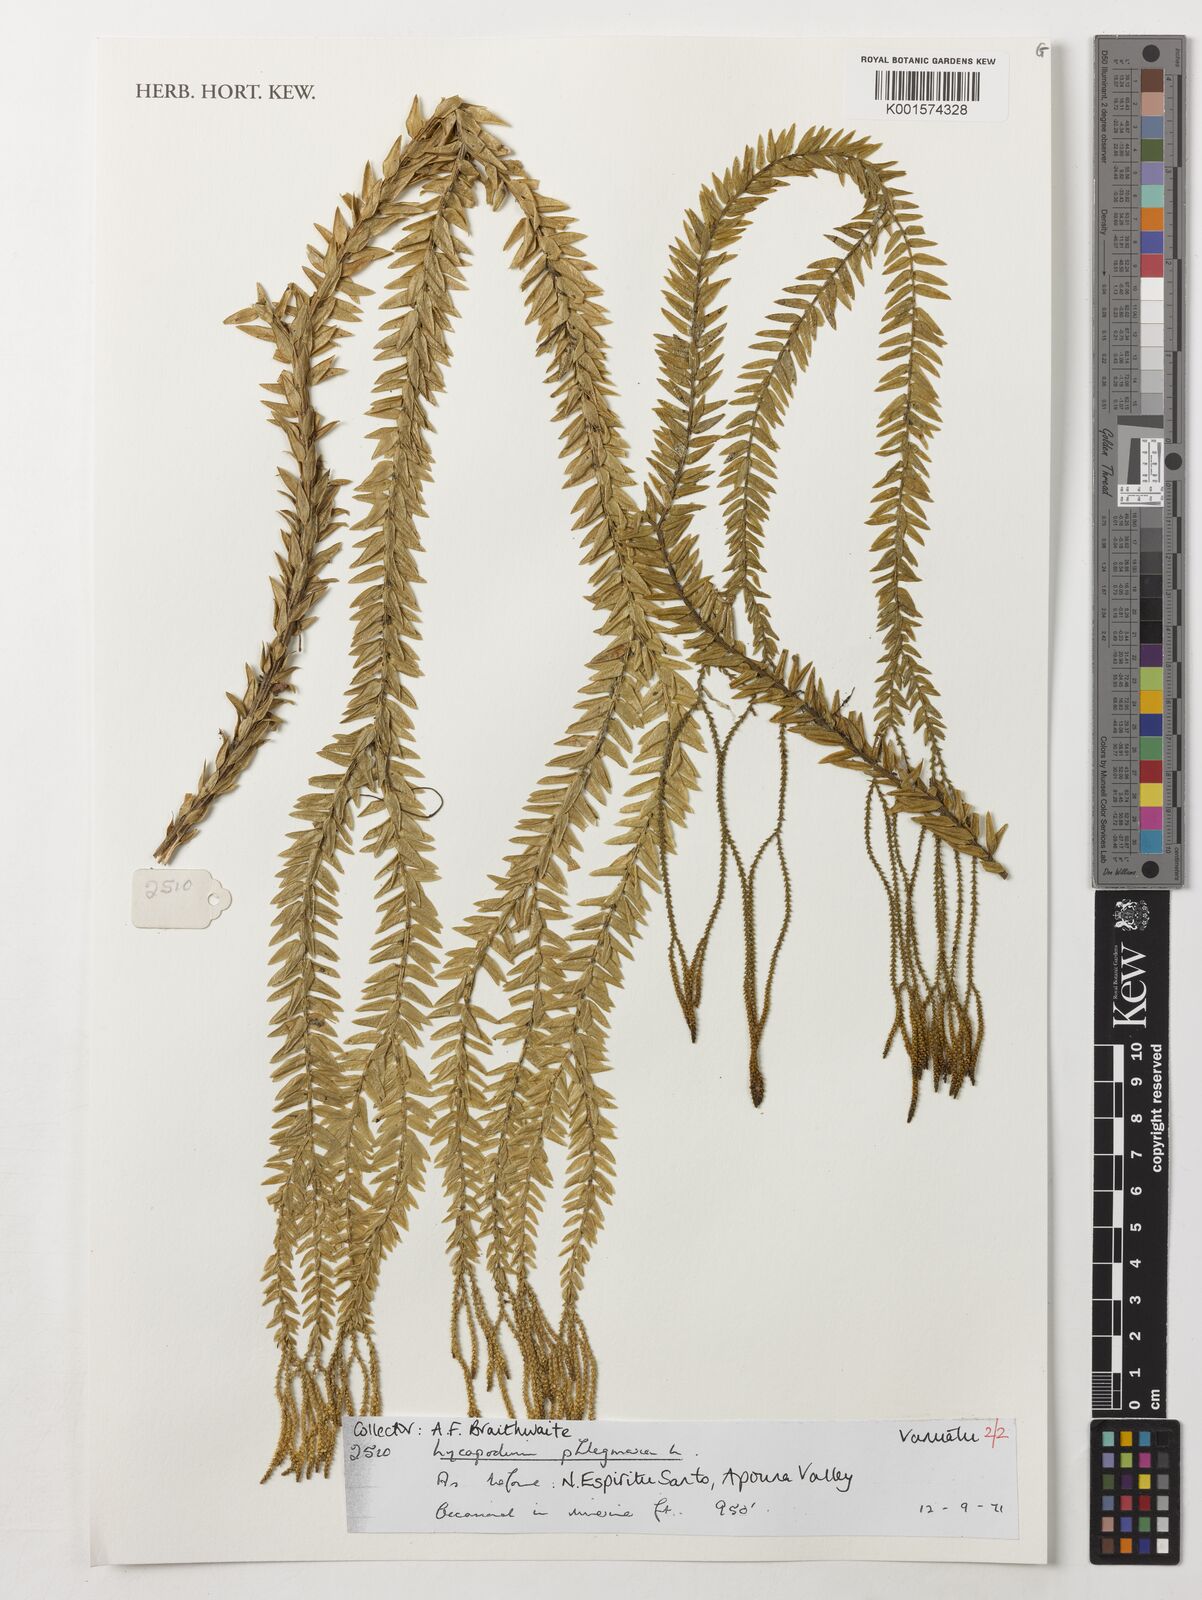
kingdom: Plantae
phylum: Tracheophyta
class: Lycopodiopsida
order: Lycopodiales
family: Lycopodiaceae
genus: Phlegmariurus
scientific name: Phlegmariurus phlegmaria
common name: Coarse tassel-fern
